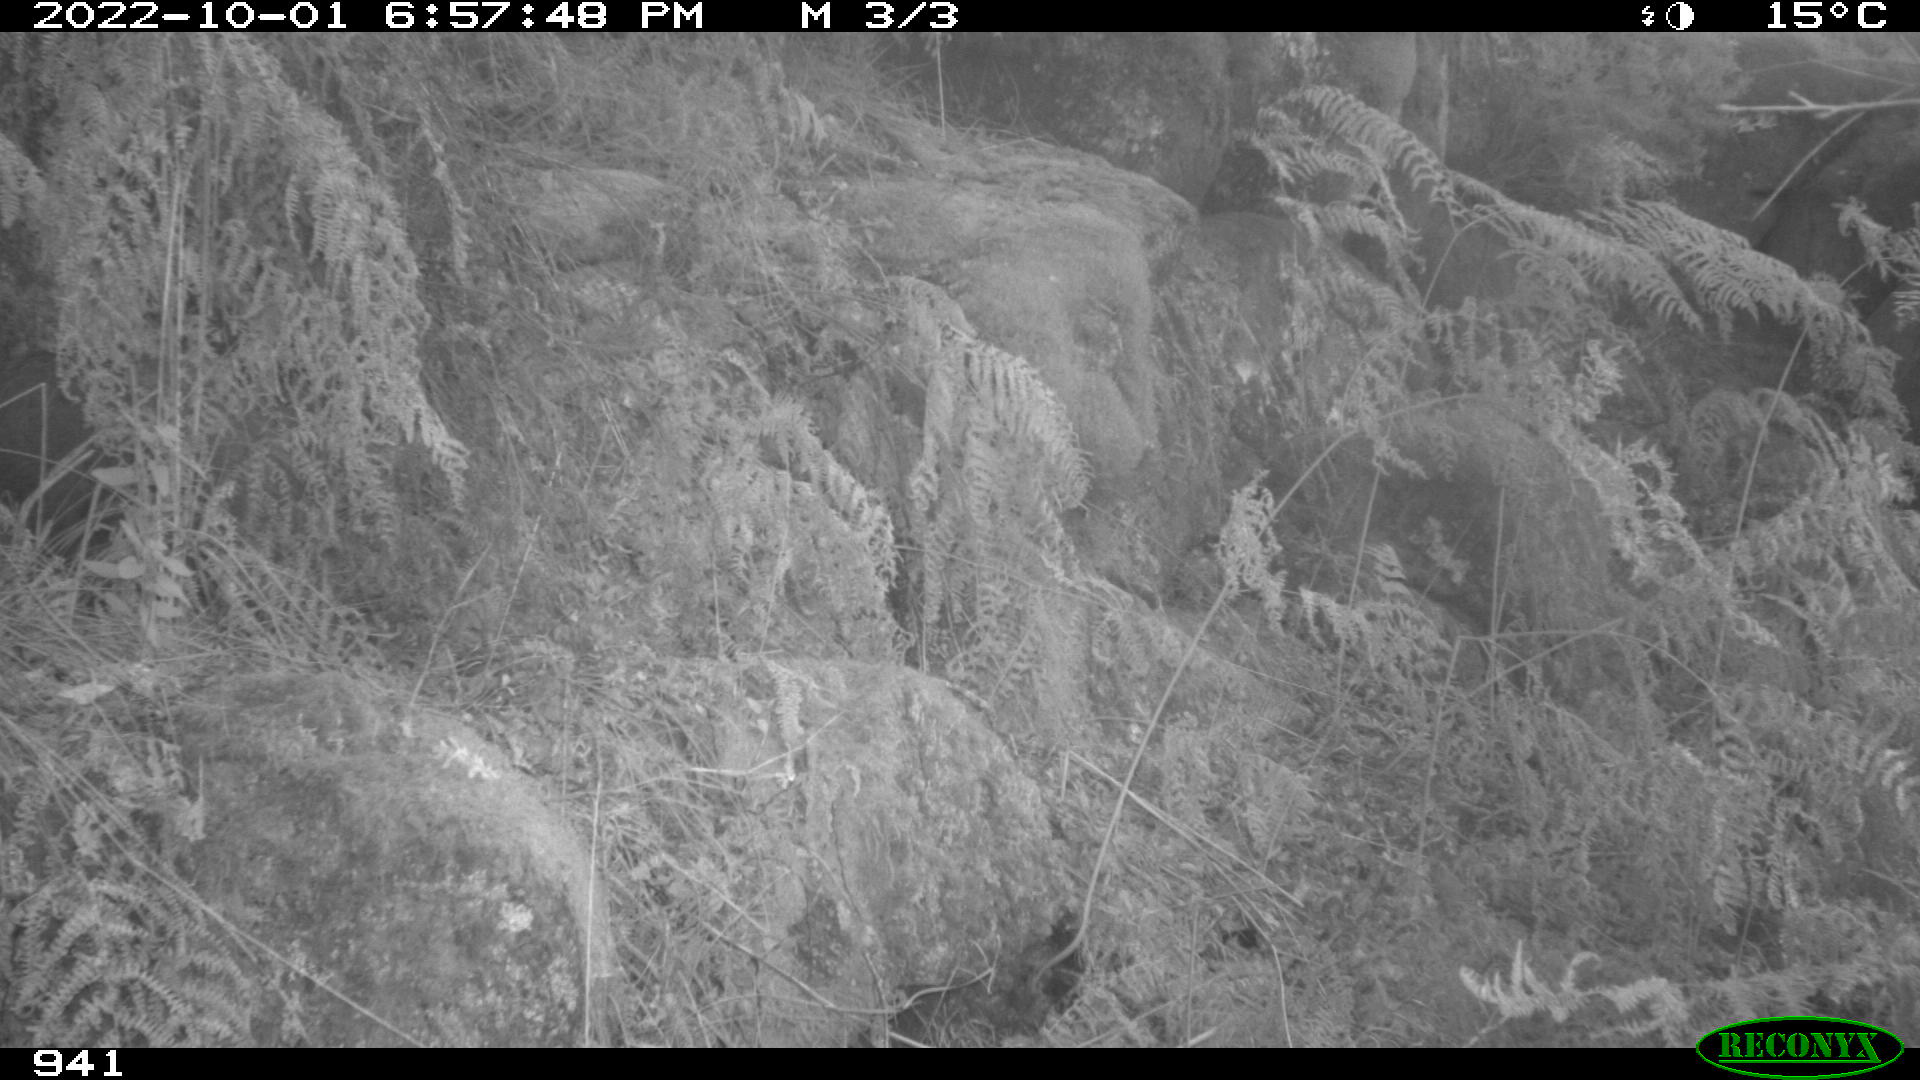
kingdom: Animalia
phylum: Chordata
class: Mammalia
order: Artiodactyla
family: Suidae
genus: Sus
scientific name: Sus scrofa
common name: Wild boar
